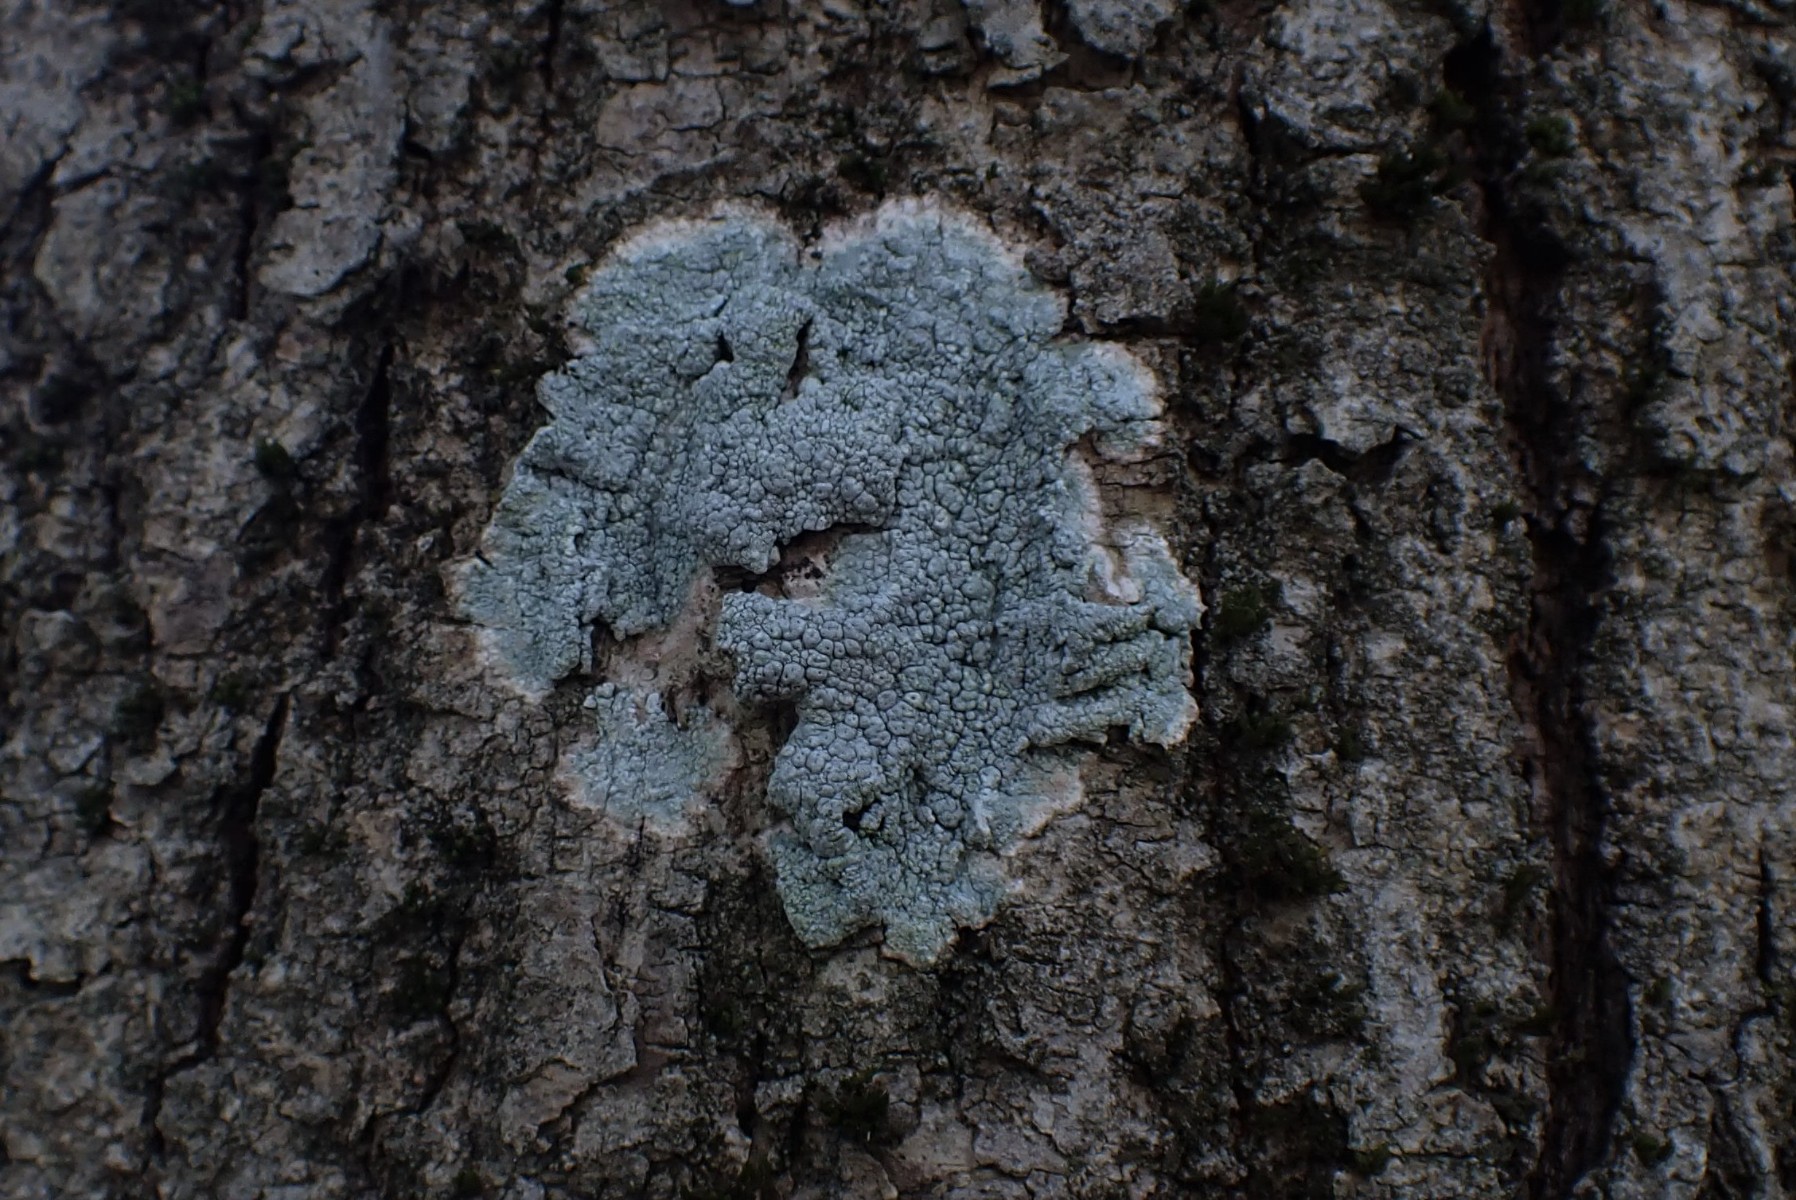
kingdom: Fungi
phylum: Ascomycota
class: Lecanoromycetes
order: Pertusariales
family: Pertusariaceae
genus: Pertusaria
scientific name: Pertusaria pertusa
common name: almindelig prikvortelav
